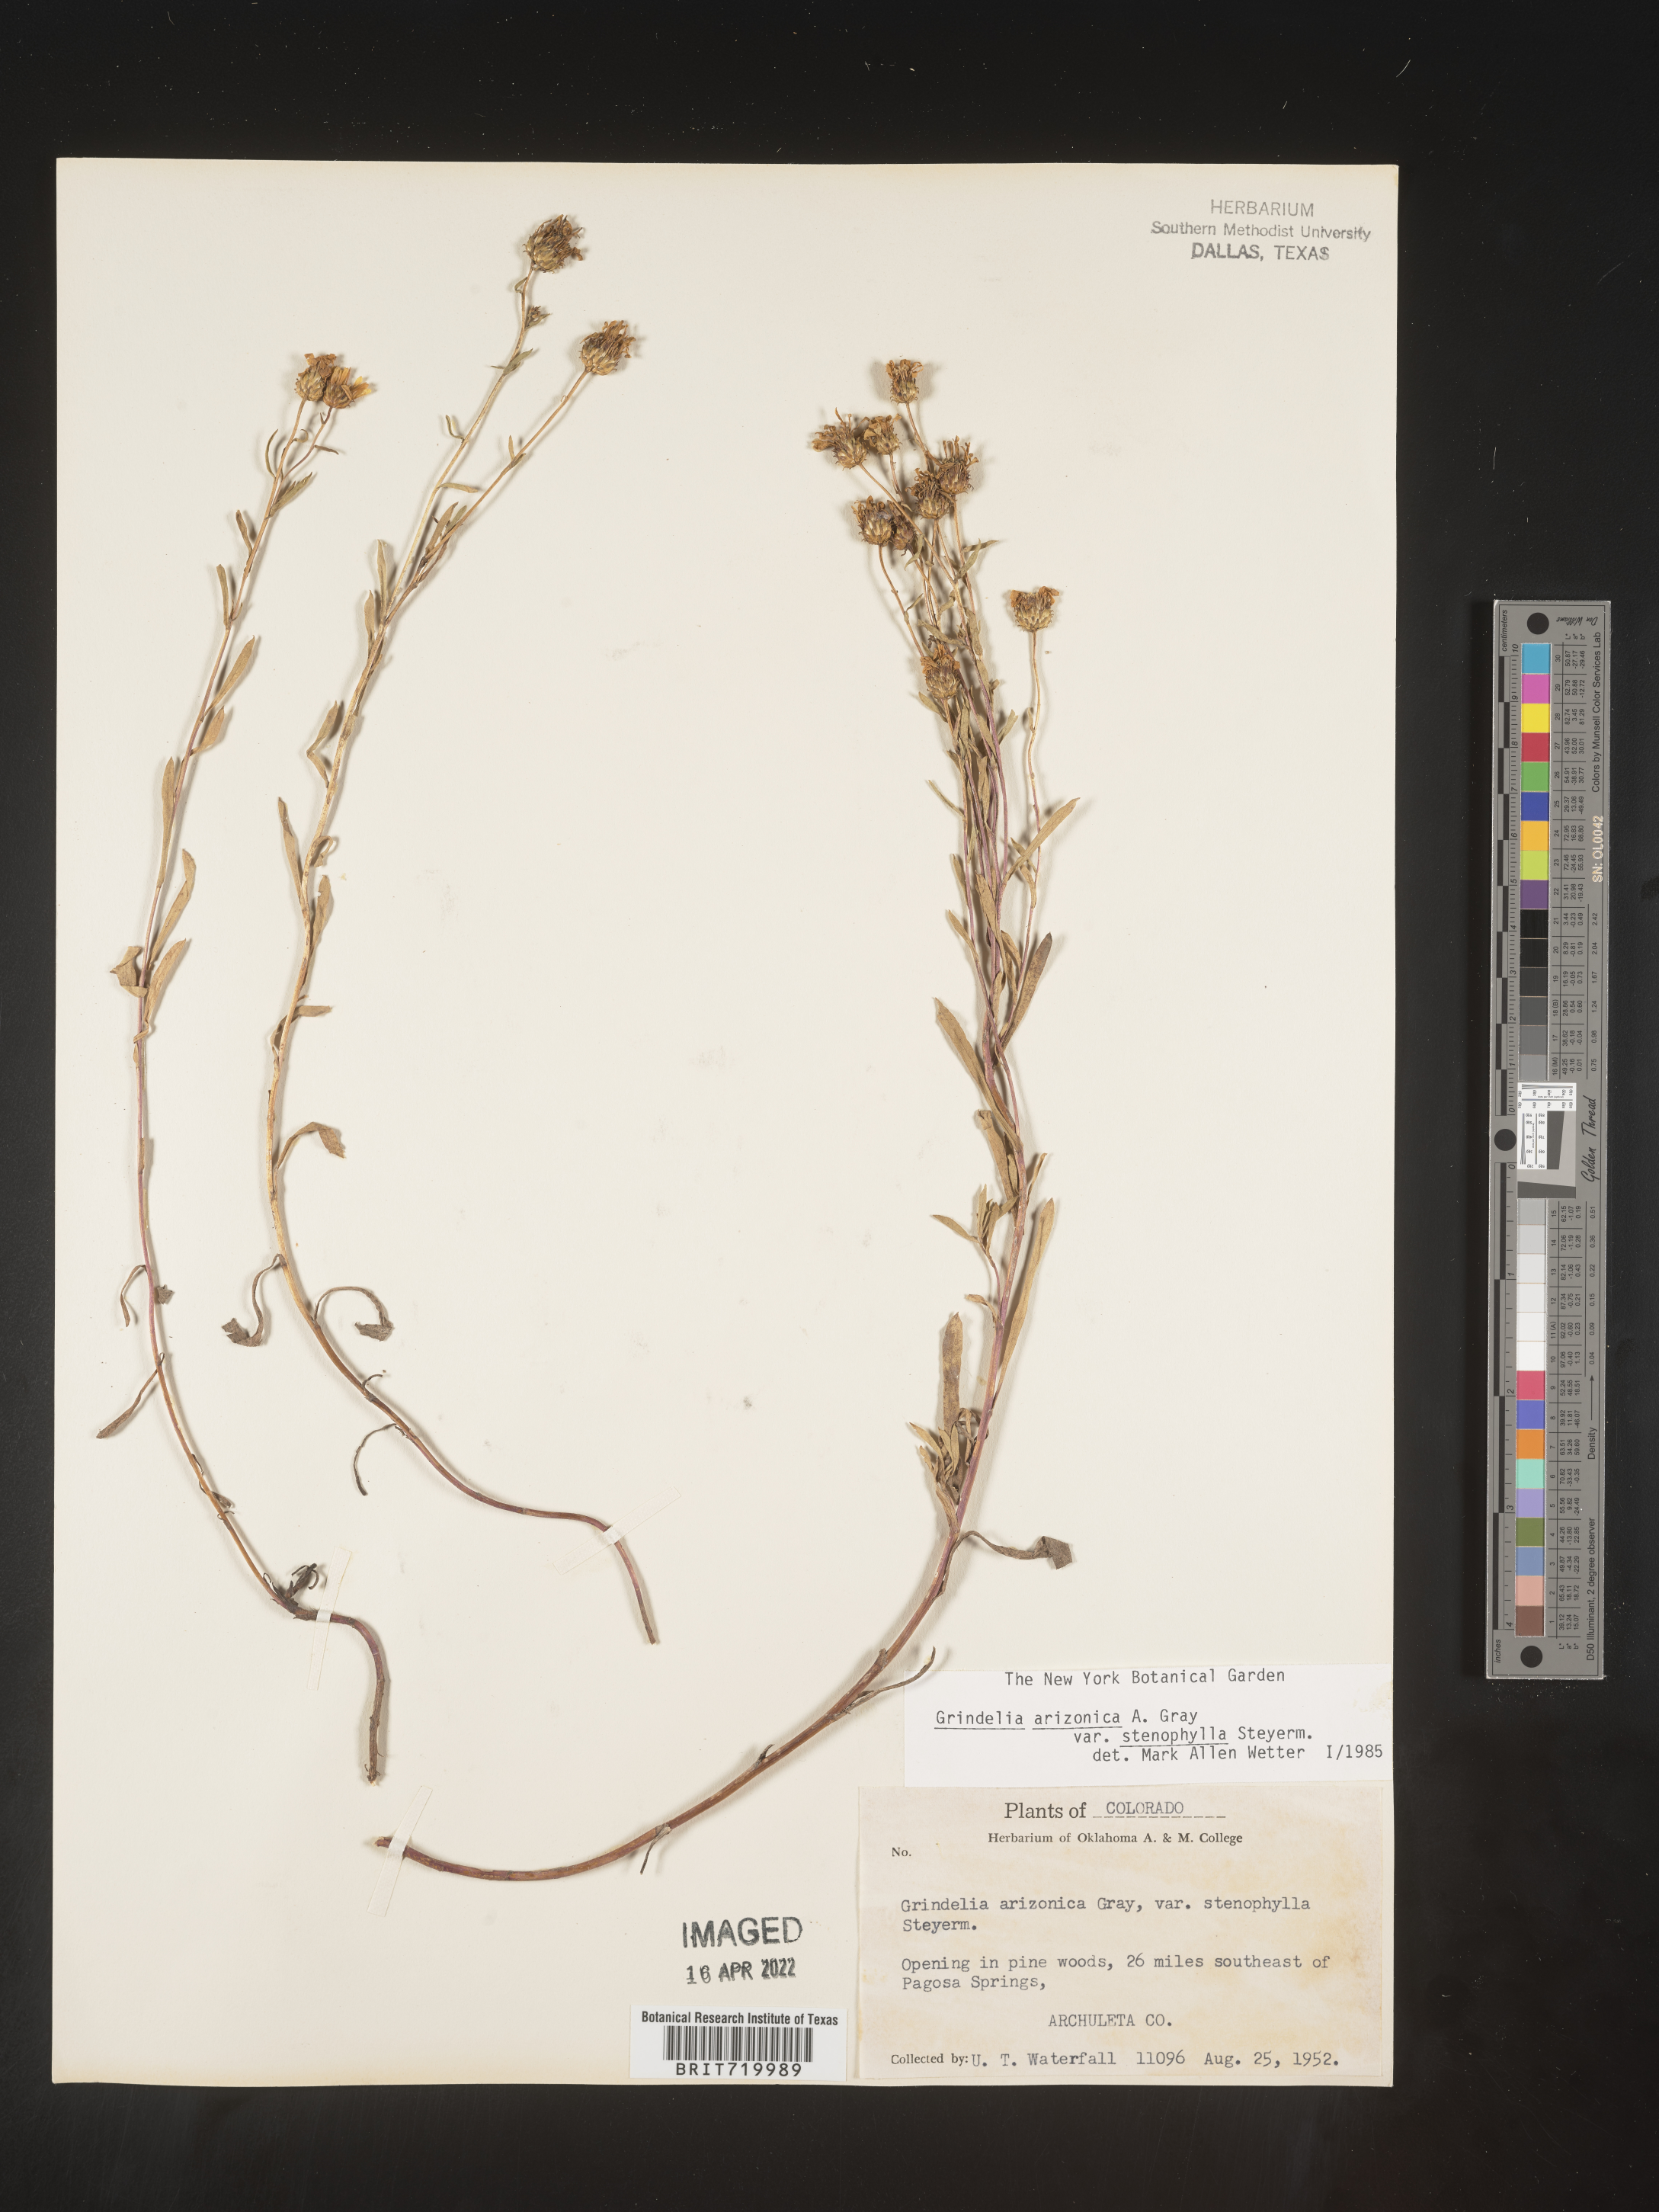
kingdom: Plantae
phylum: Tracheophyta
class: Magnoliopsida
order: Asterales
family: Asteraceae
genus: Grindelia
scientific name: Grindelia arizonica
